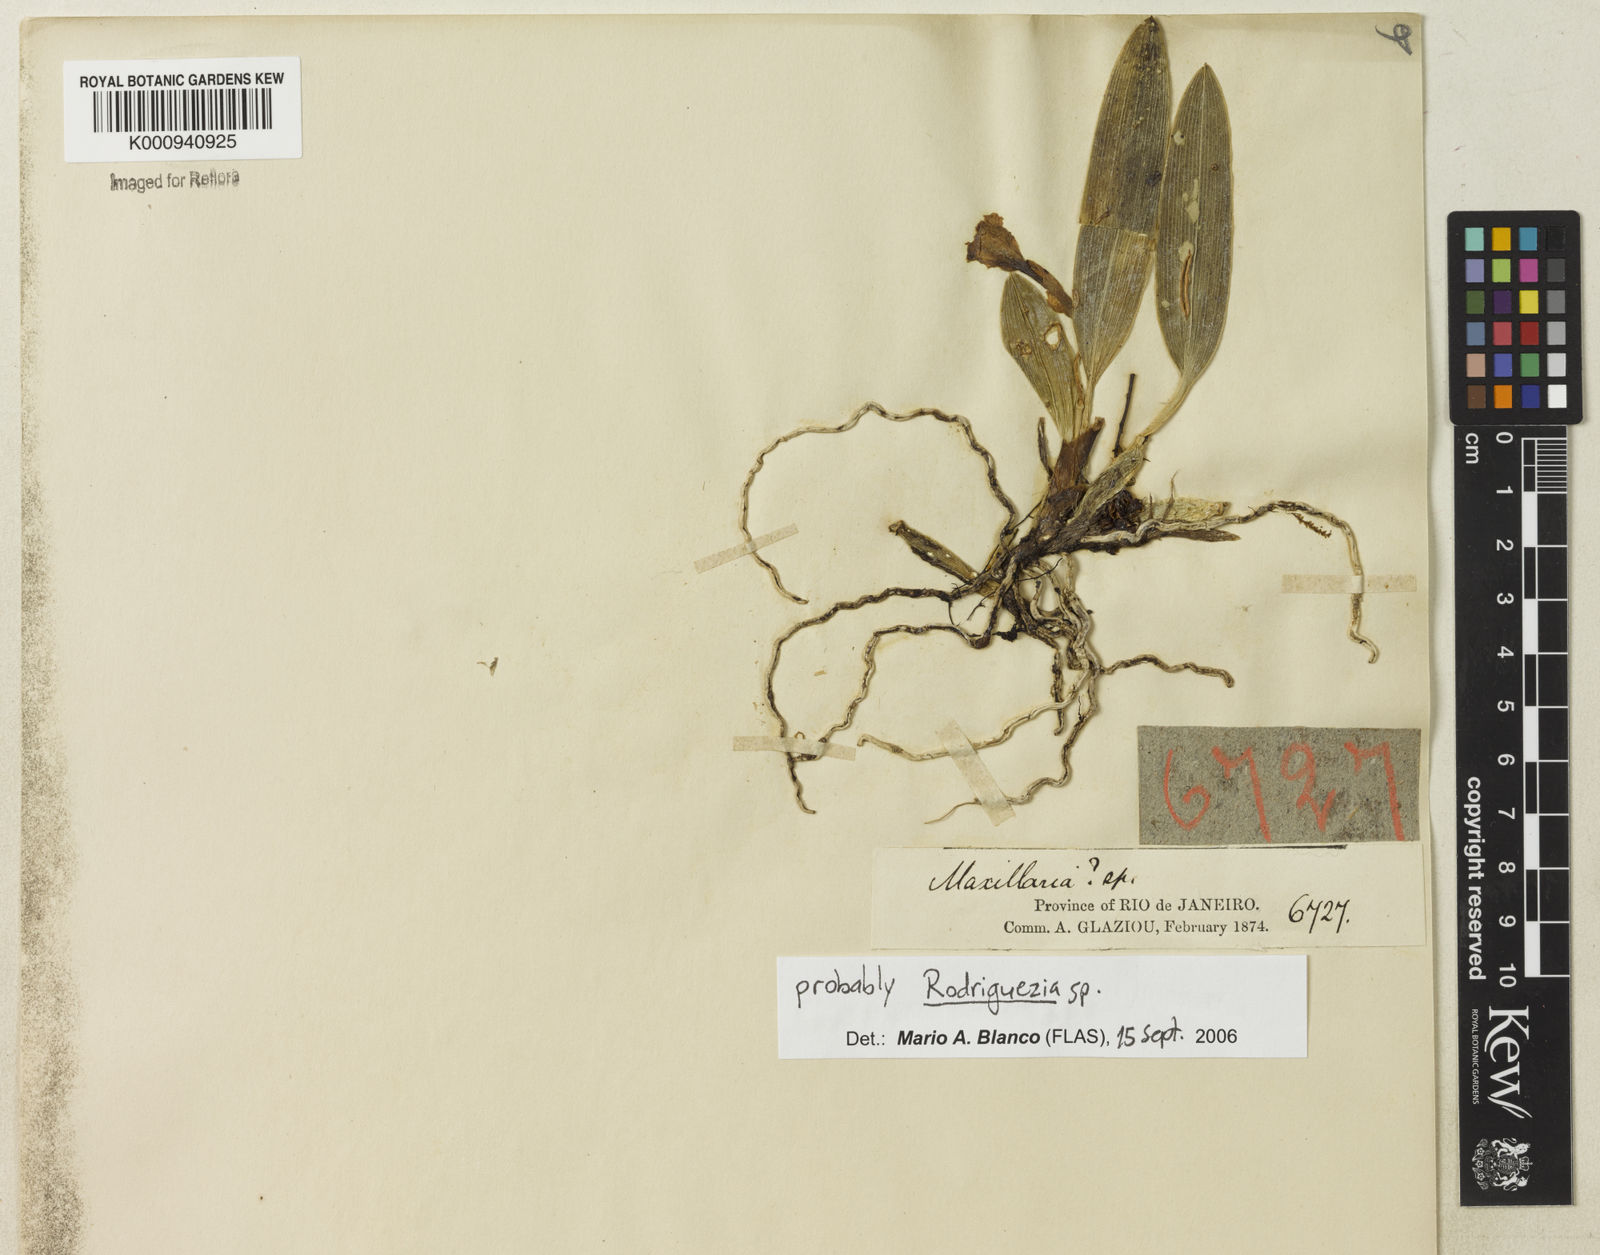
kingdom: Plantae
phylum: Tracheophyta
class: Liliopsida
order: Asparagales
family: Orchidaceae
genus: Rodriguezia
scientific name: Rodriguezia
